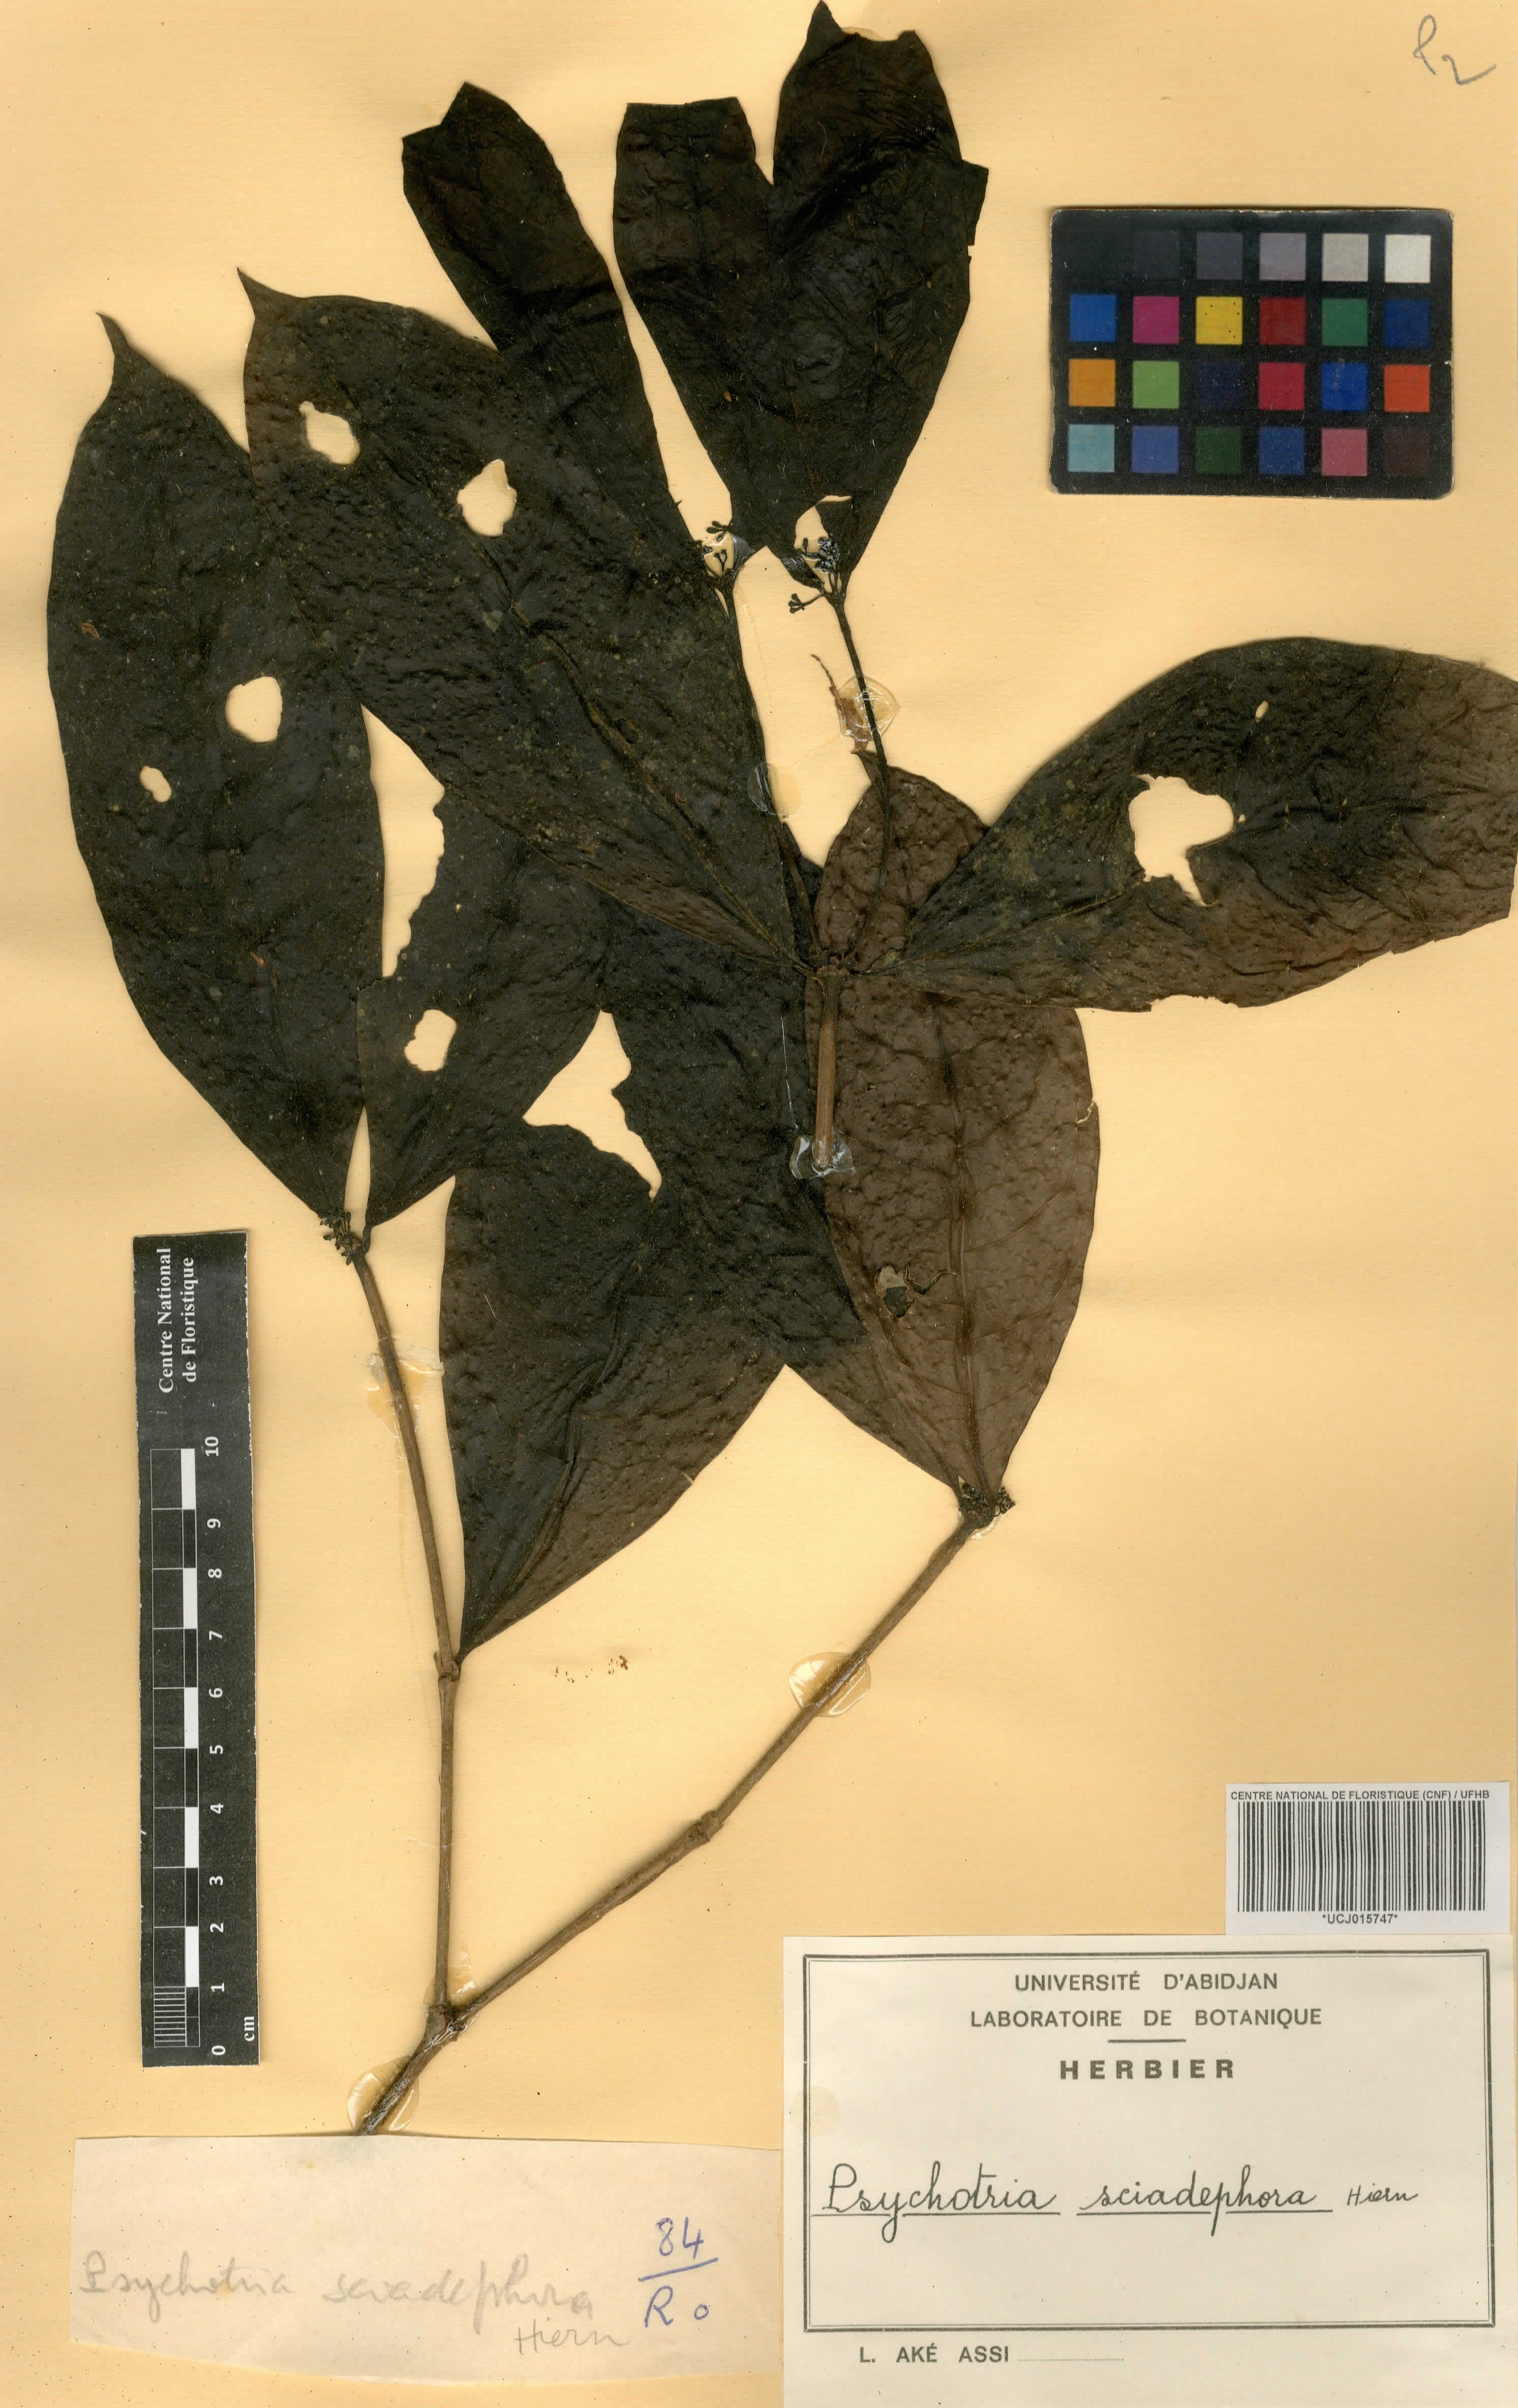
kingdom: Plantae
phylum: Tracheophyta
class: Magnoliopsida
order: Gentianales
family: Rubiaceae
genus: Eumachia
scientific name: Eumachia sciadephora
